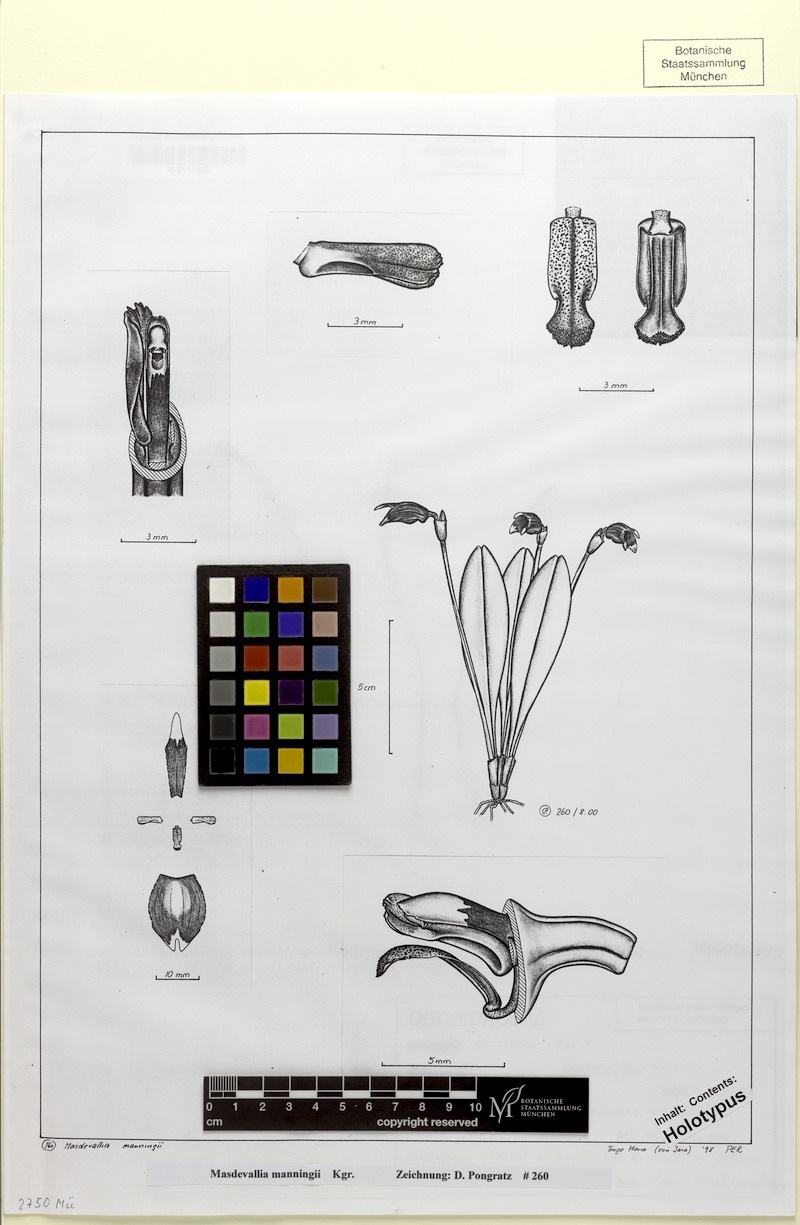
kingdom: Plantae
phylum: Tracheophyta
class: Liliopsida
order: Asparagales
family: Orchidaceae
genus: Masdevallia
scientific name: Masdevallia manningii
